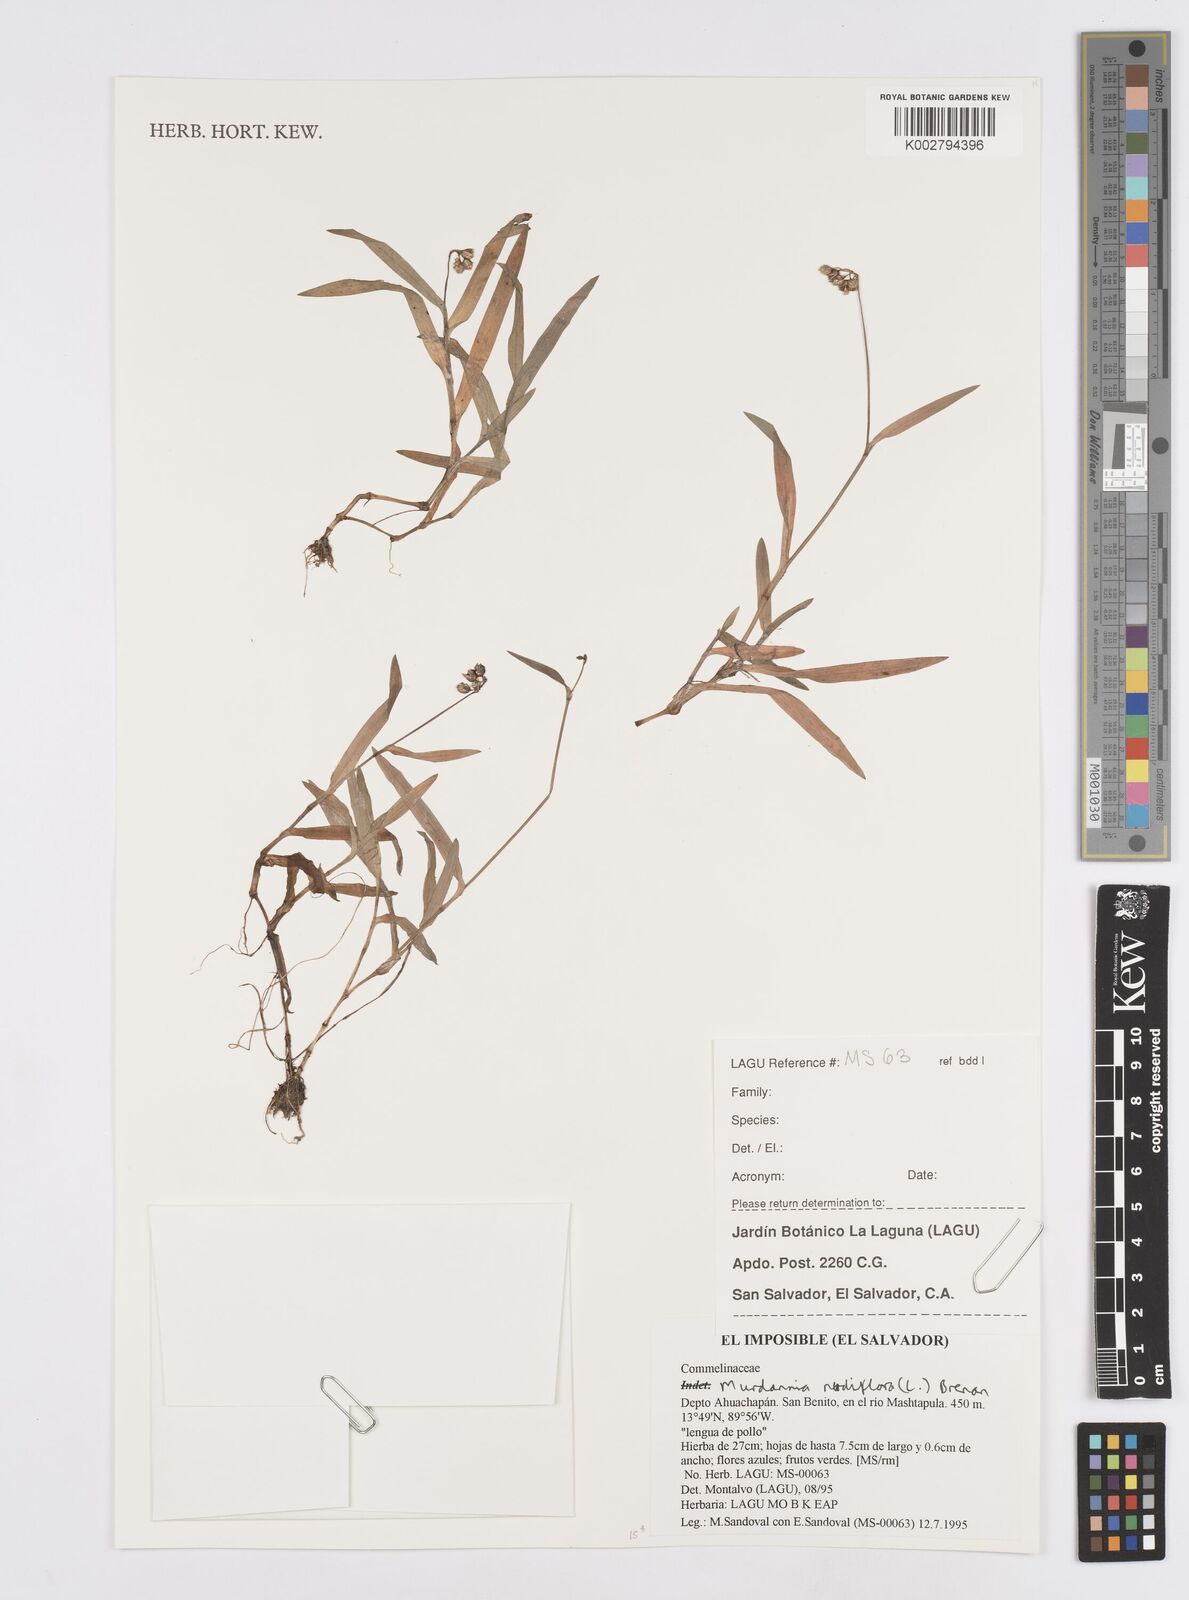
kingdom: Plantae
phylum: Tracheophyta
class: Liliopsida
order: Commelinales
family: Commelinaceae
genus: Murdannia
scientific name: Murdannia nudiflora
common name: Nakedstem dewflower
